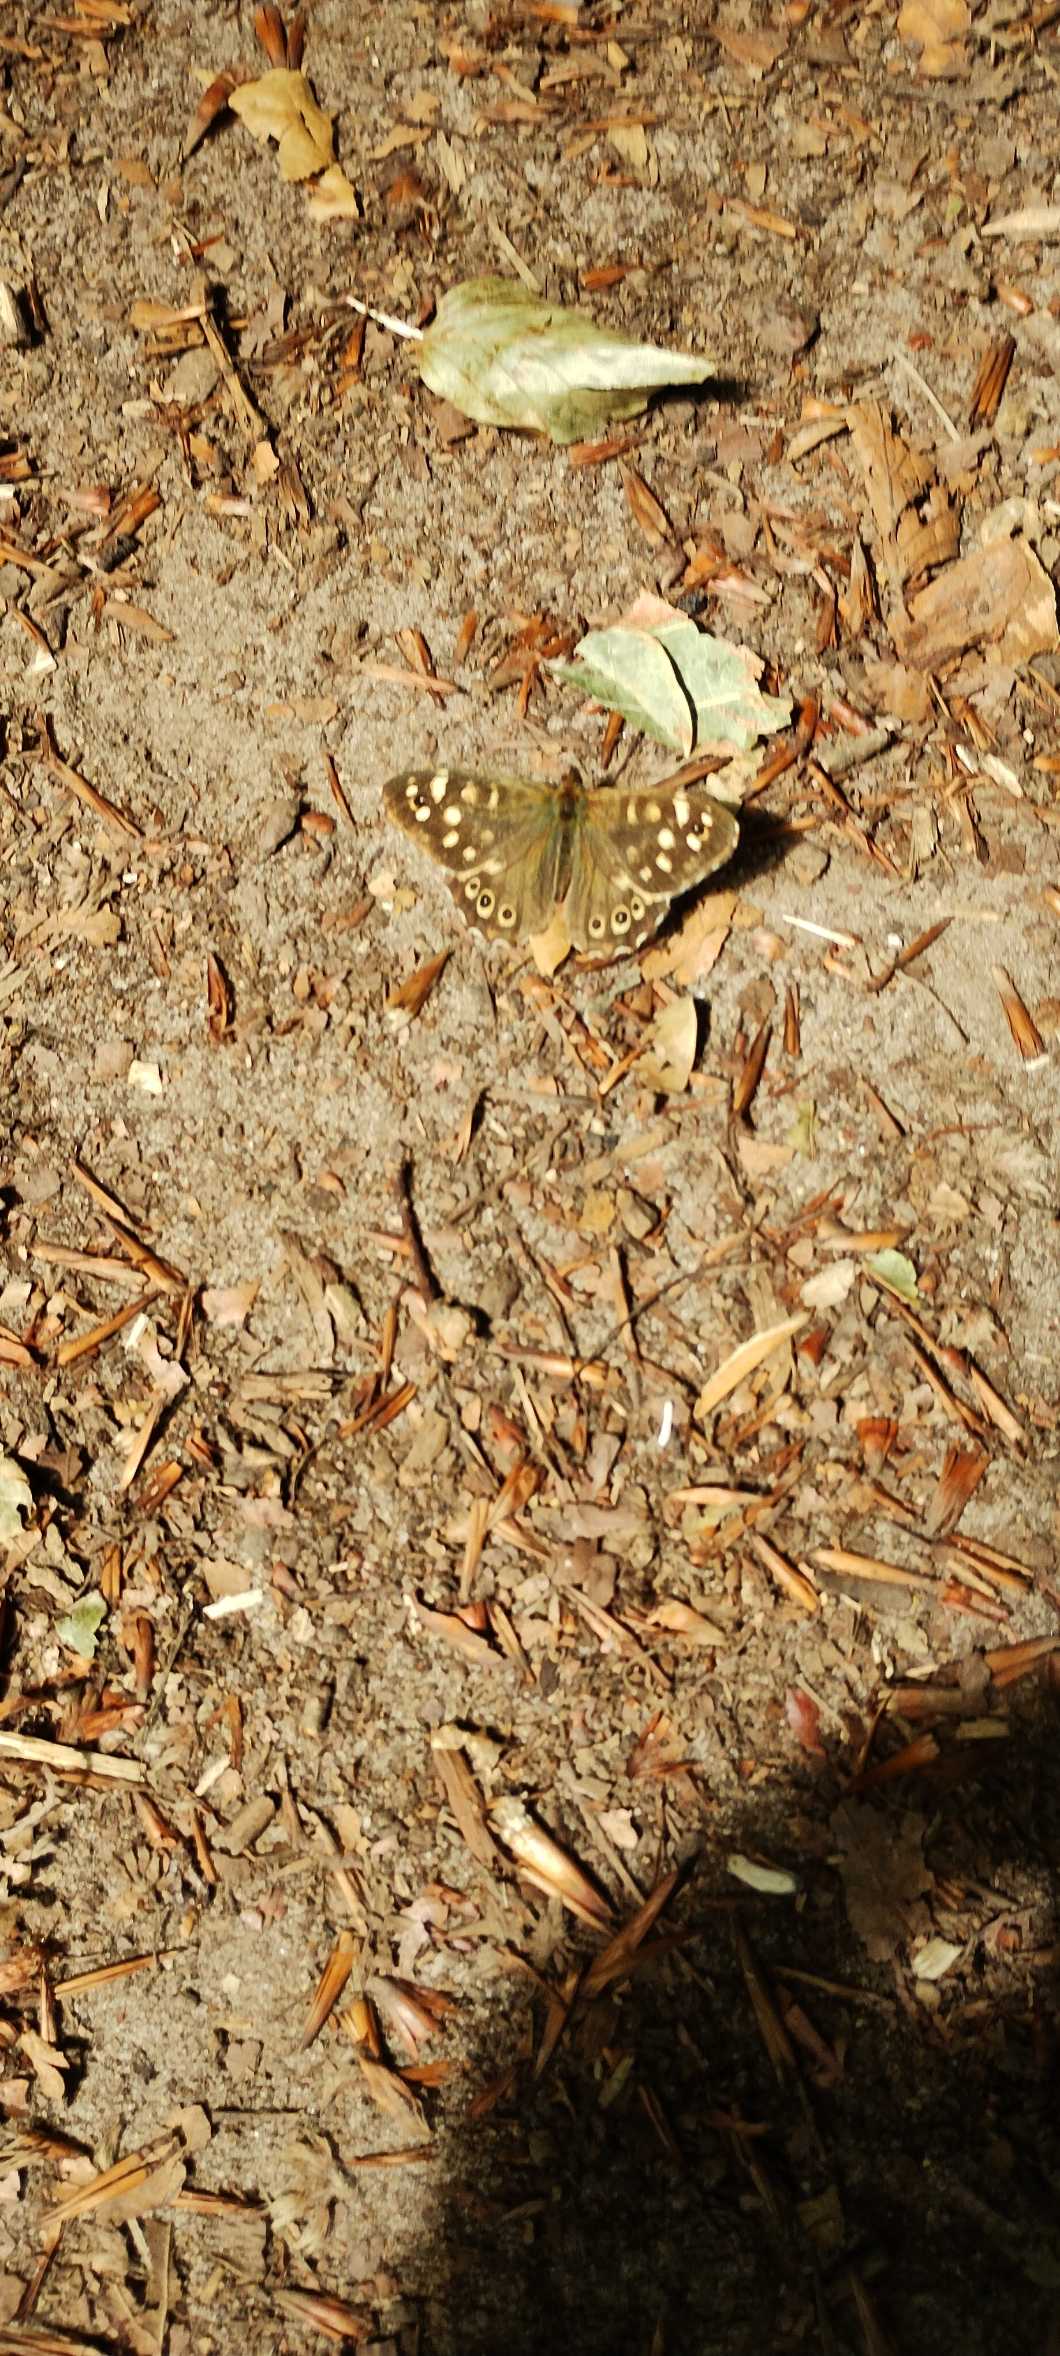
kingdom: Animalia
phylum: Arthropoda
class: Insecta
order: Lepidoptera
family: Nymphalidae
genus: Pararge
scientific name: Pararge aegeria
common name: Skovrandøje
